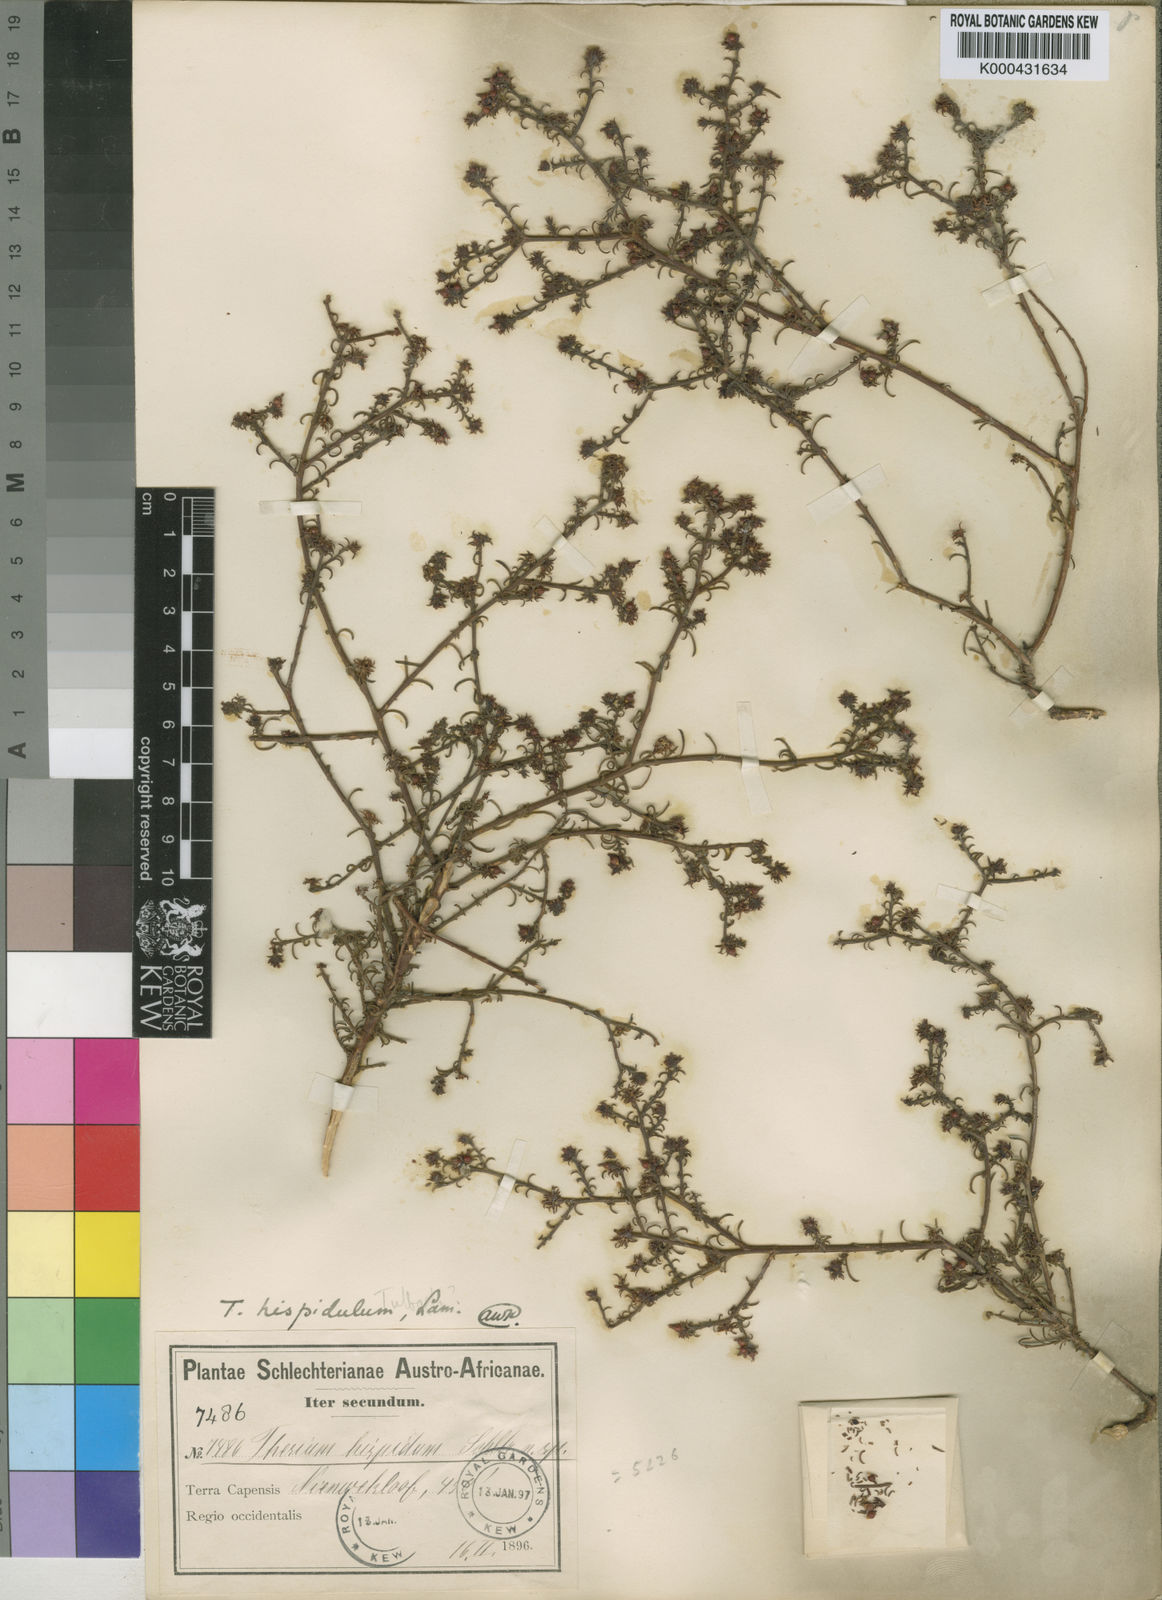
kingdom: Plantae
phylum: Tracheophyta
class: Magnoliopsida
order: Santalales
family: Thesiaceae
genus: Thesium
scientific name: Thesium
